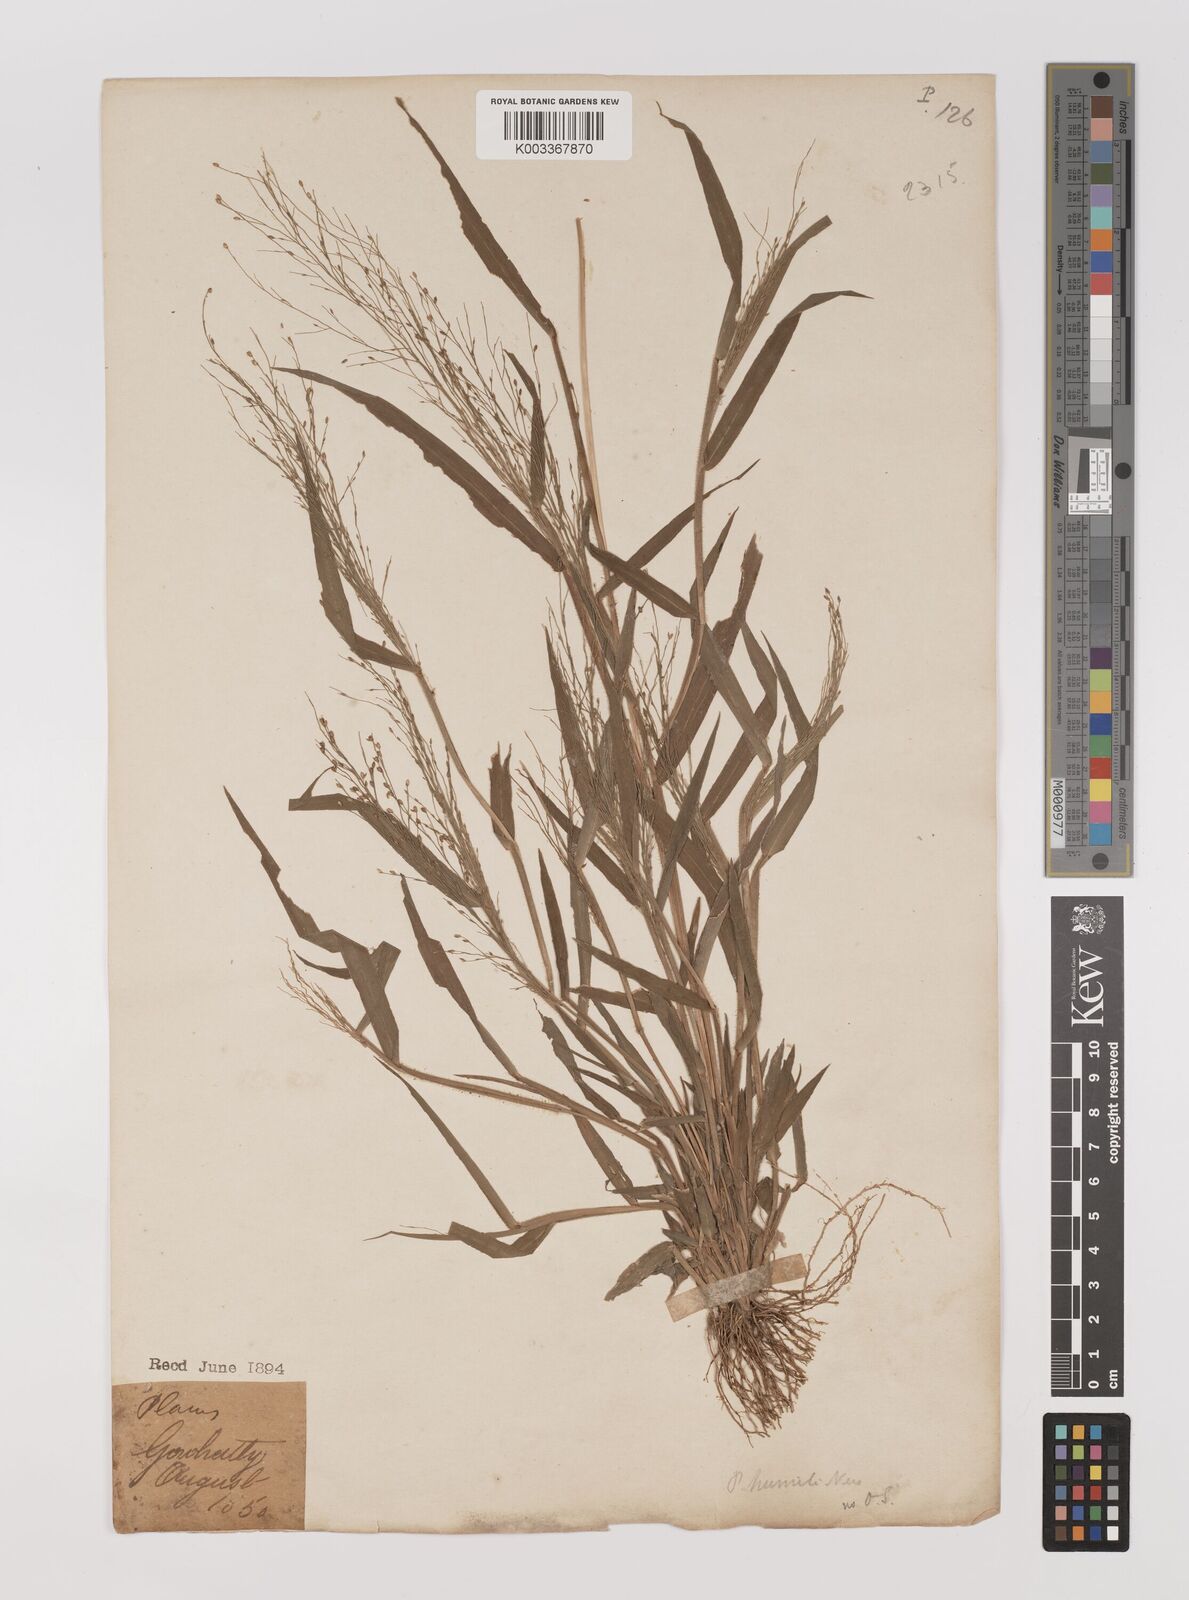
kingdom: Plantae
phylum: Tracheophyta
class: Liliopsida
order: Poales
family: Poaceae
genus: Panicum
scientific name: Panicum humile
